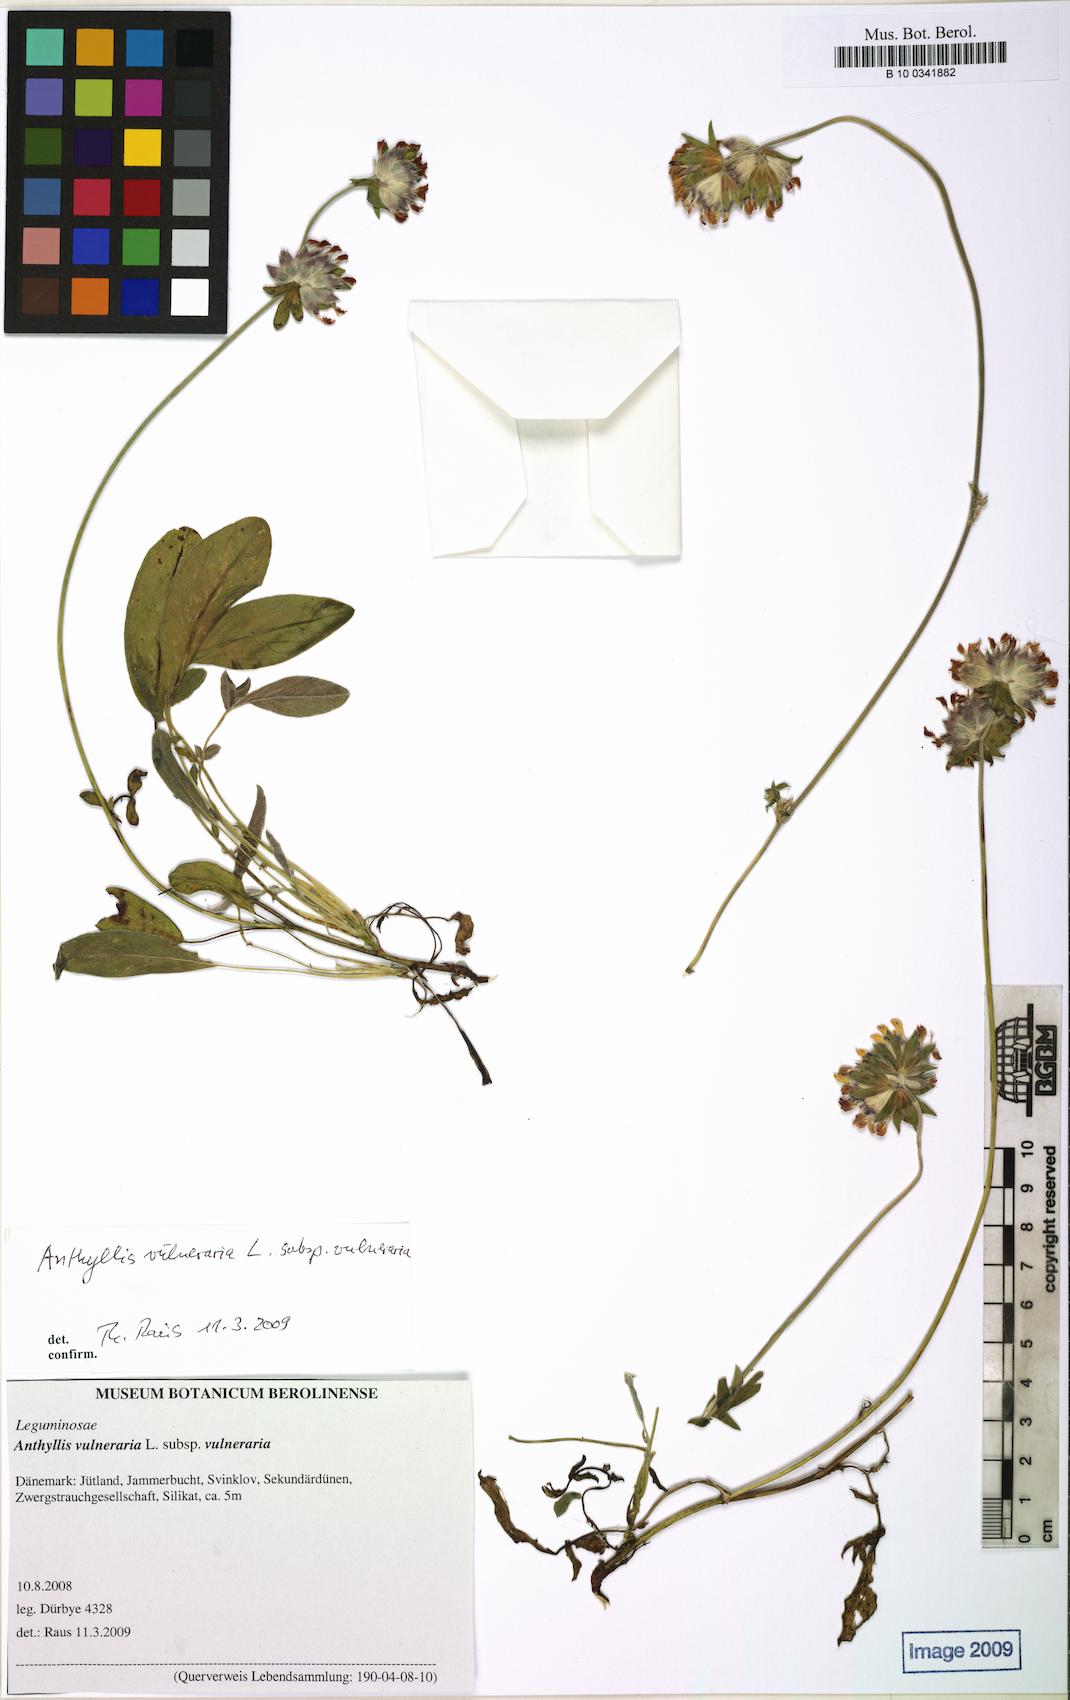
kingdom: Plantae
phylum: Tracheophyta
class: Magnoliopsida
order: Fabales
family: Fabaceae
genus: Anthyllis
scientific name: Anthyllis vulneraria
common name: Kidney vetch
